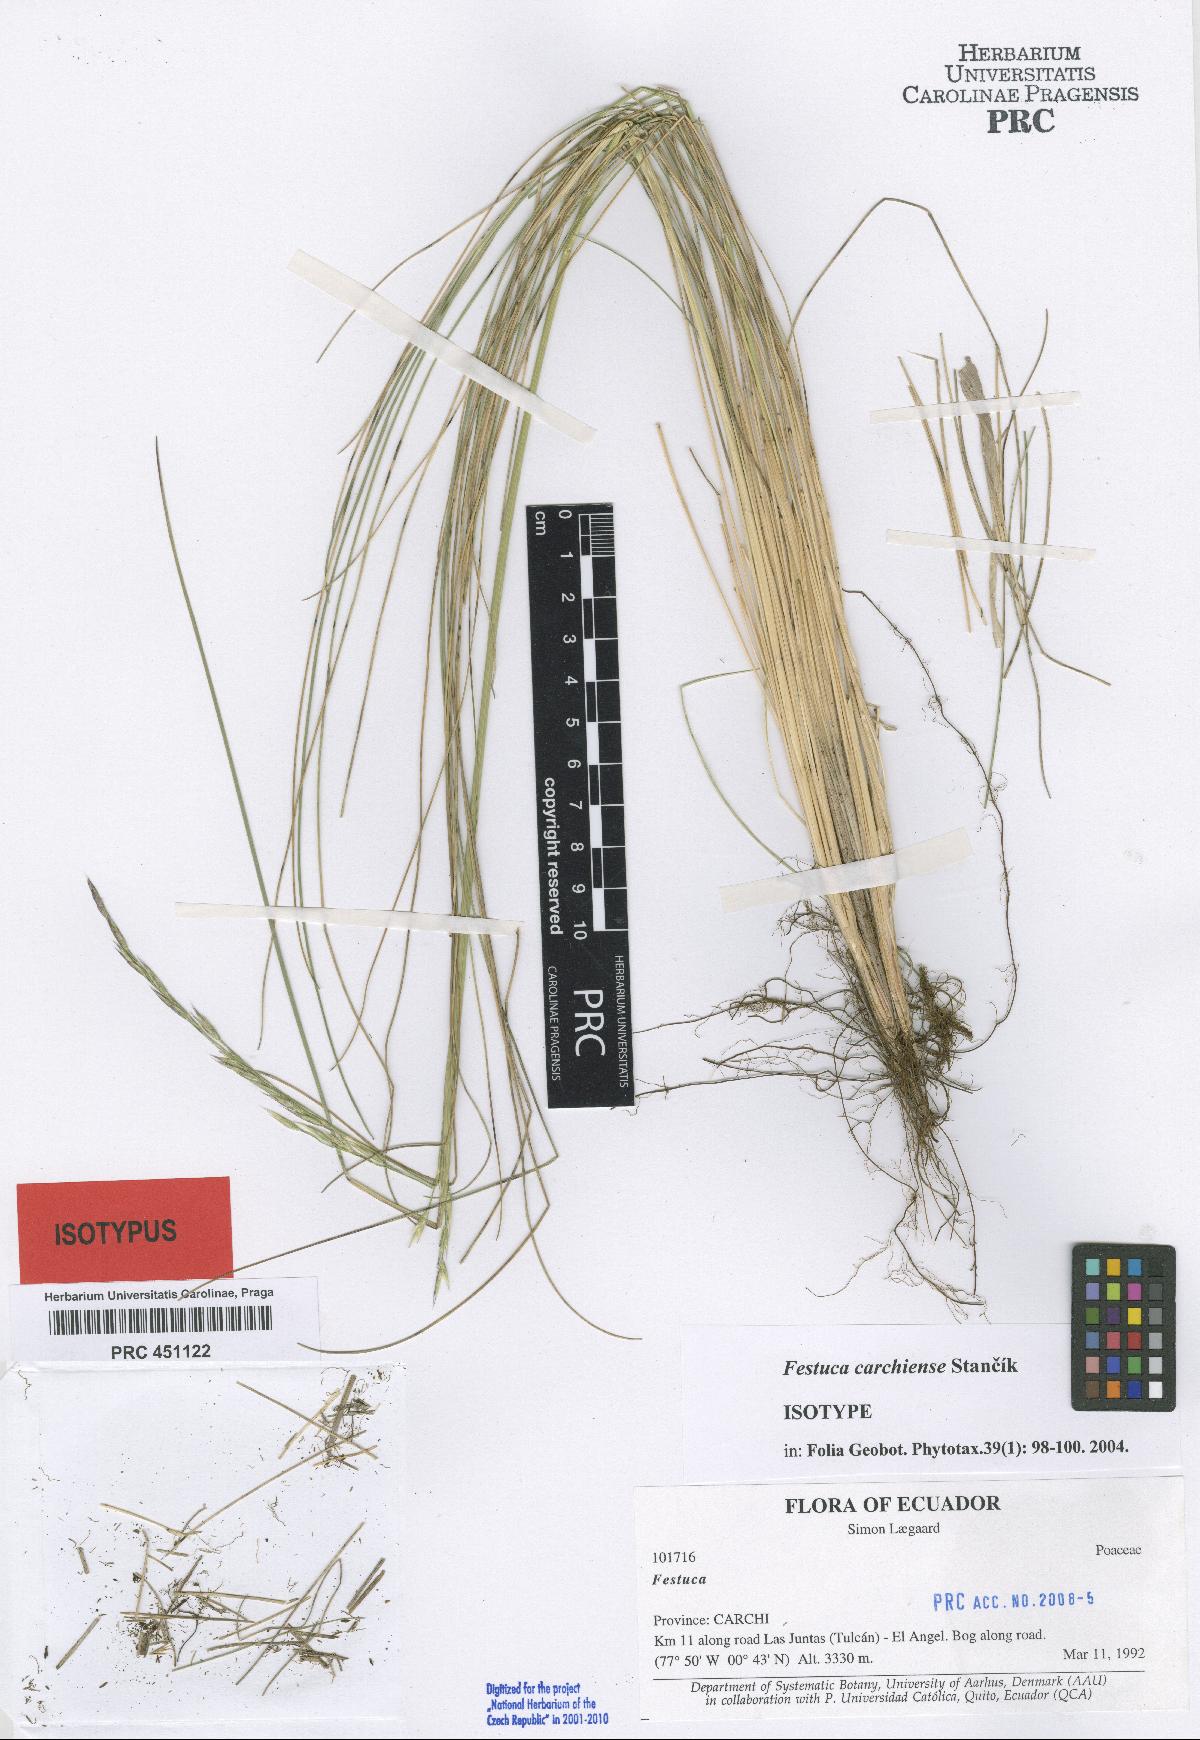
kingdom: Plantae
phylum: Tracheophyta
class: Liliopsida
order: Poales
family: Poaceae
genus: Festuca
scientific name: Festuca carchiensis
